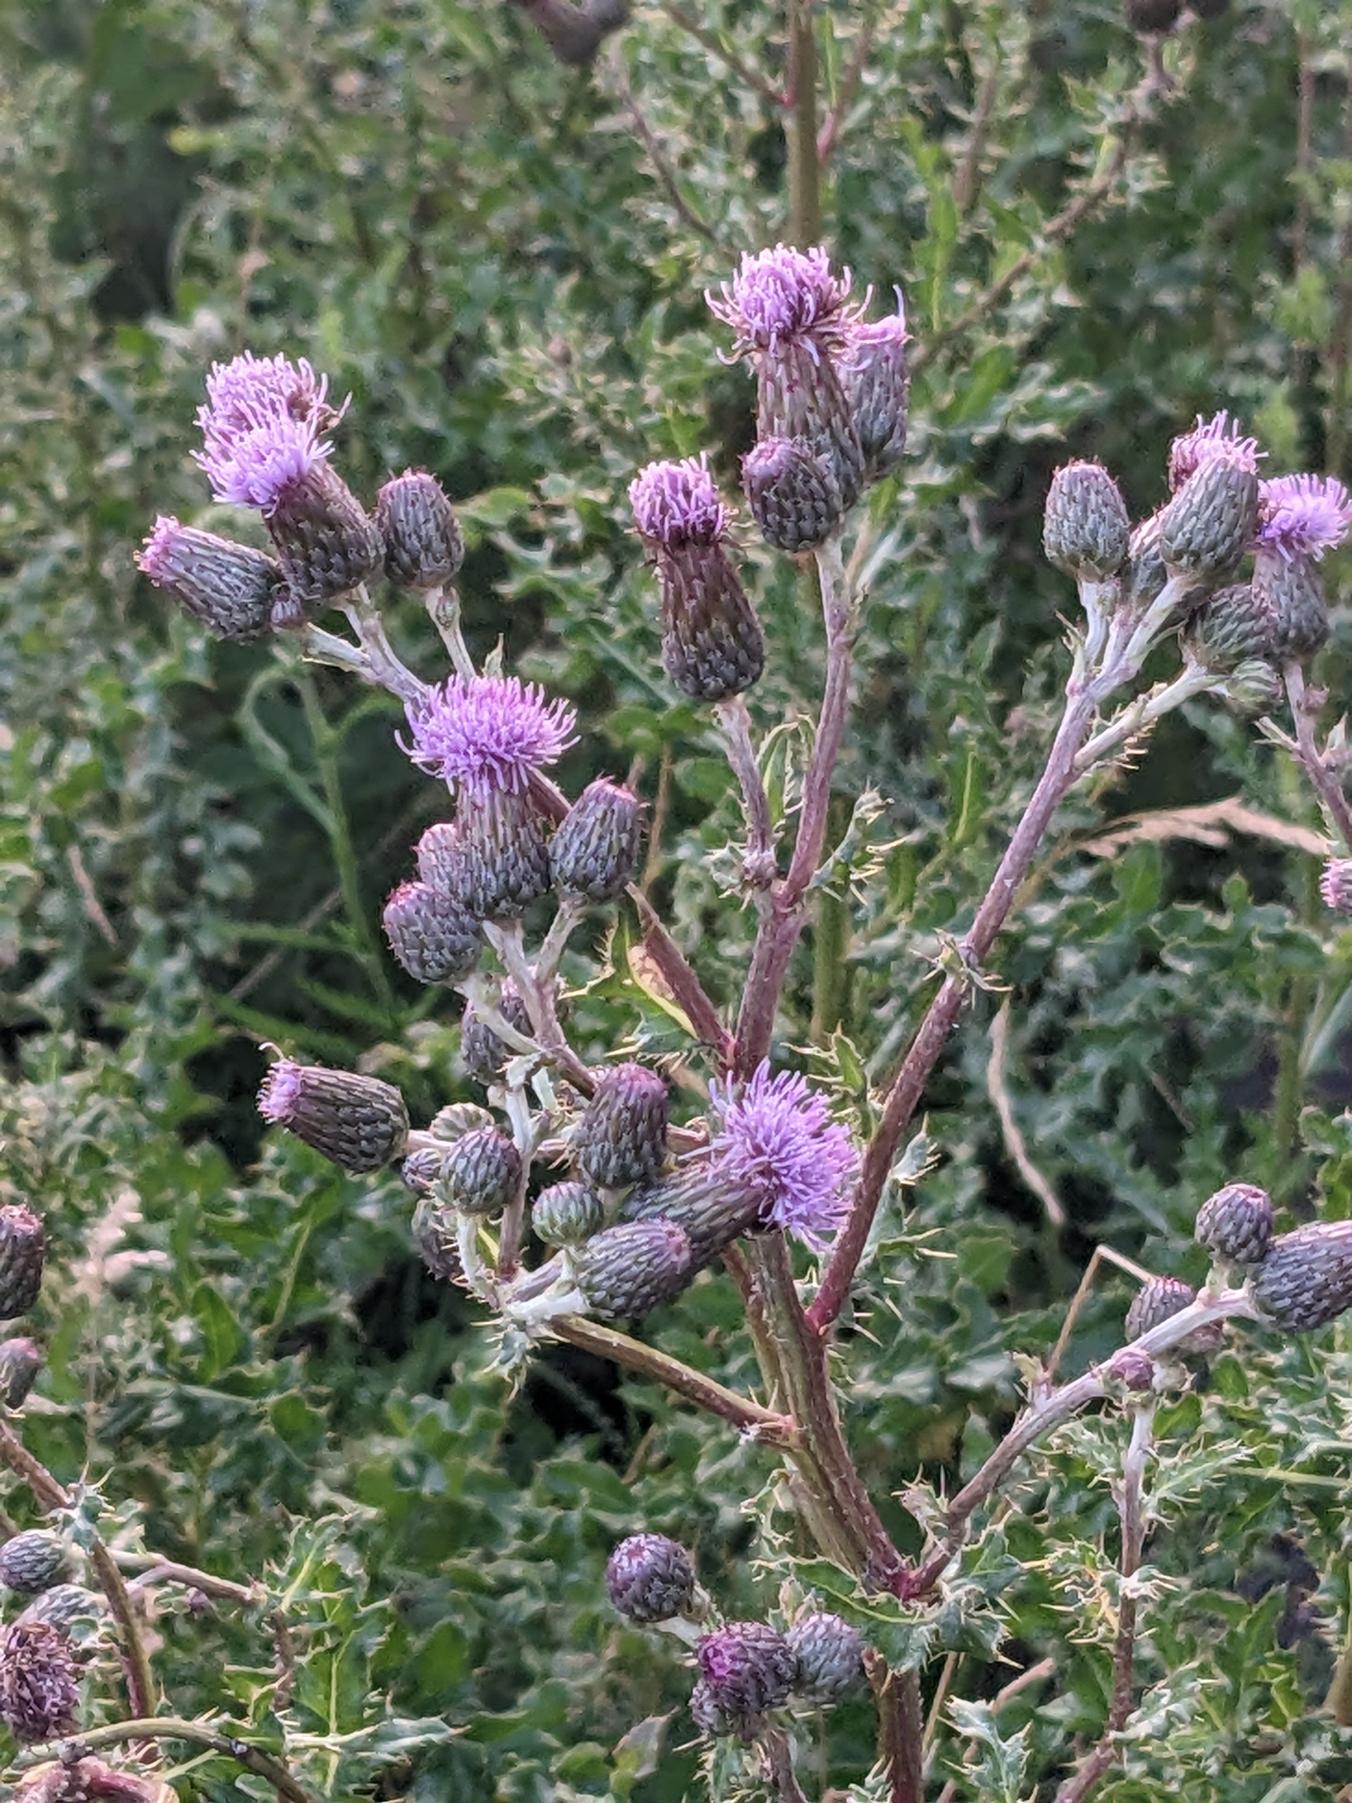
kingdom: Plantae
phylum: Tracheophyta
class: Magnoliopsida
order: Asterales
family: Asteraceae
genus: Cirsium
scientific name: Cirsium arvense
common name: Ager-tidsel
